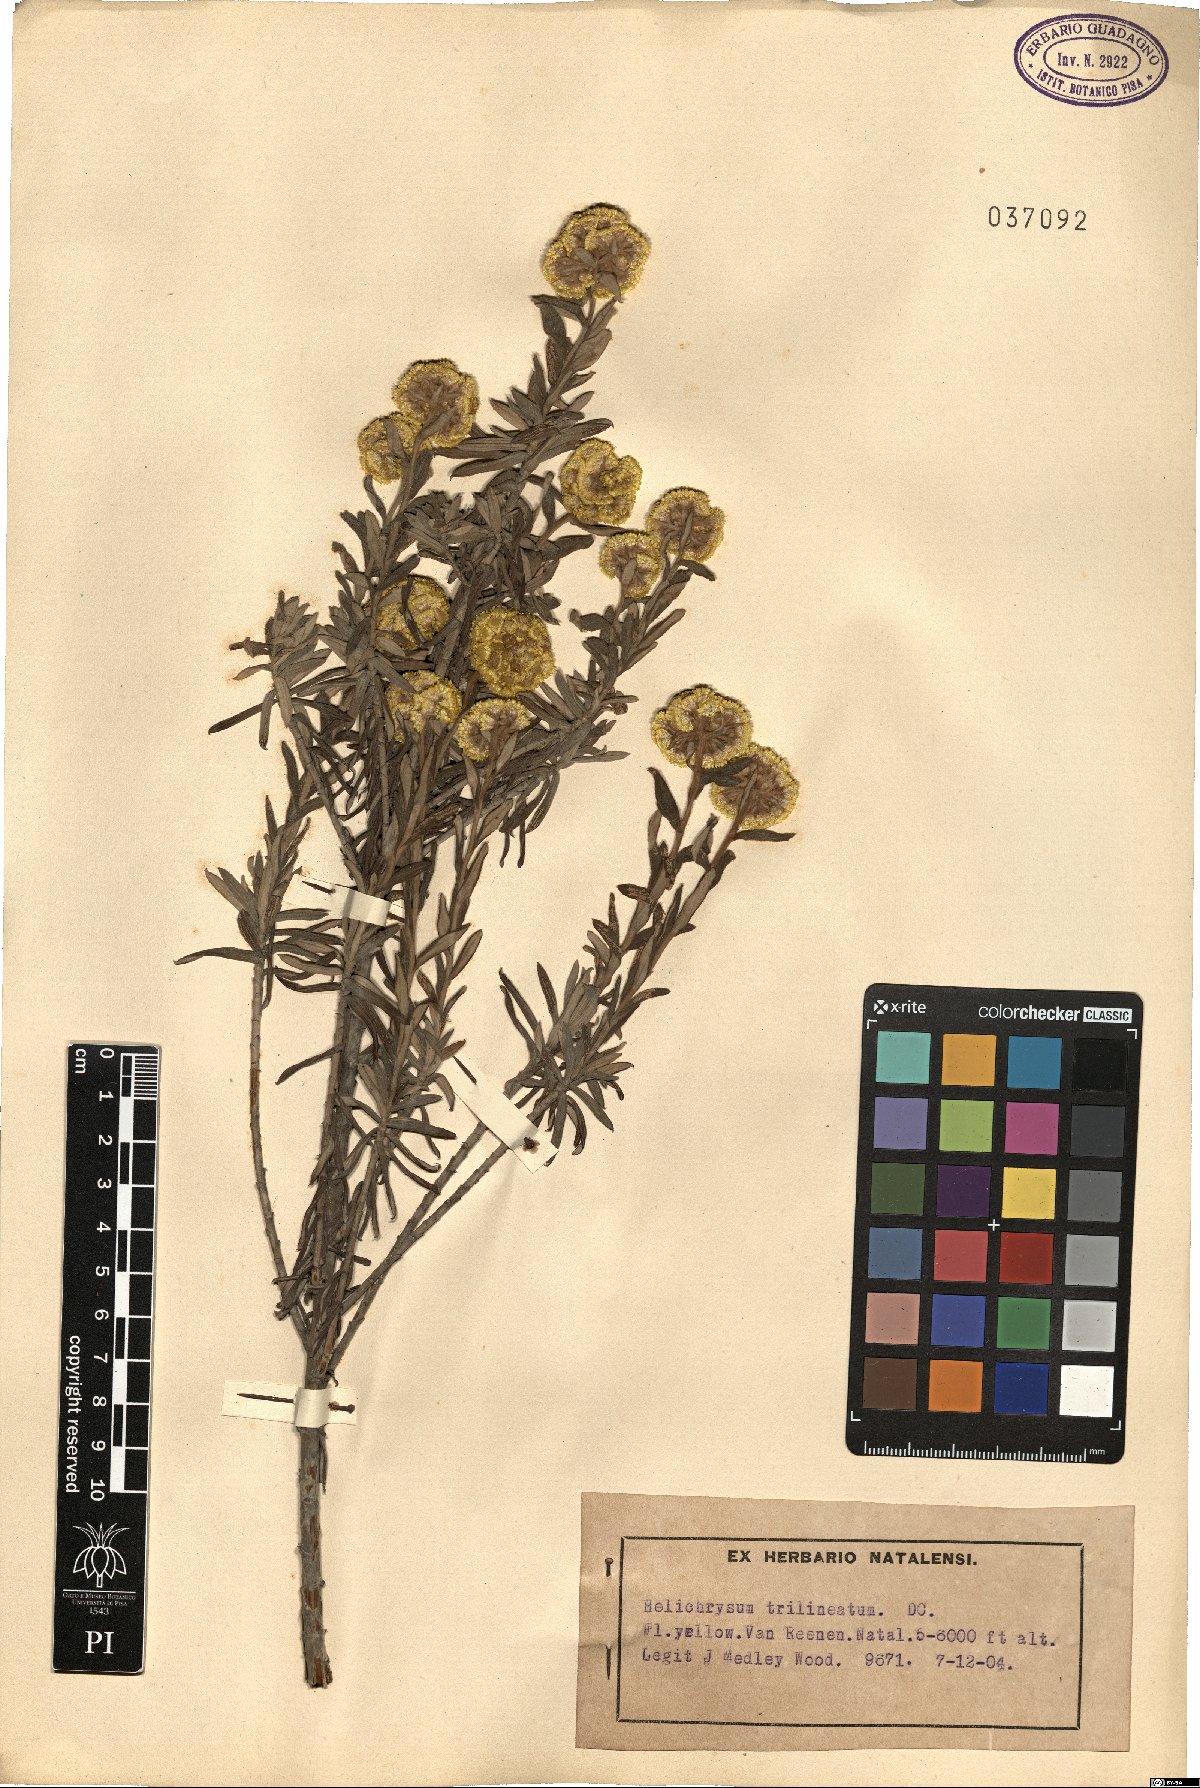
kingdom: Plantae
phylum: Tracheophyta
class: Magnoliopsida
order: Asterales
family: Asteraceae
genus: Helichrysum
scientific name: Helichrysum trilineatum
